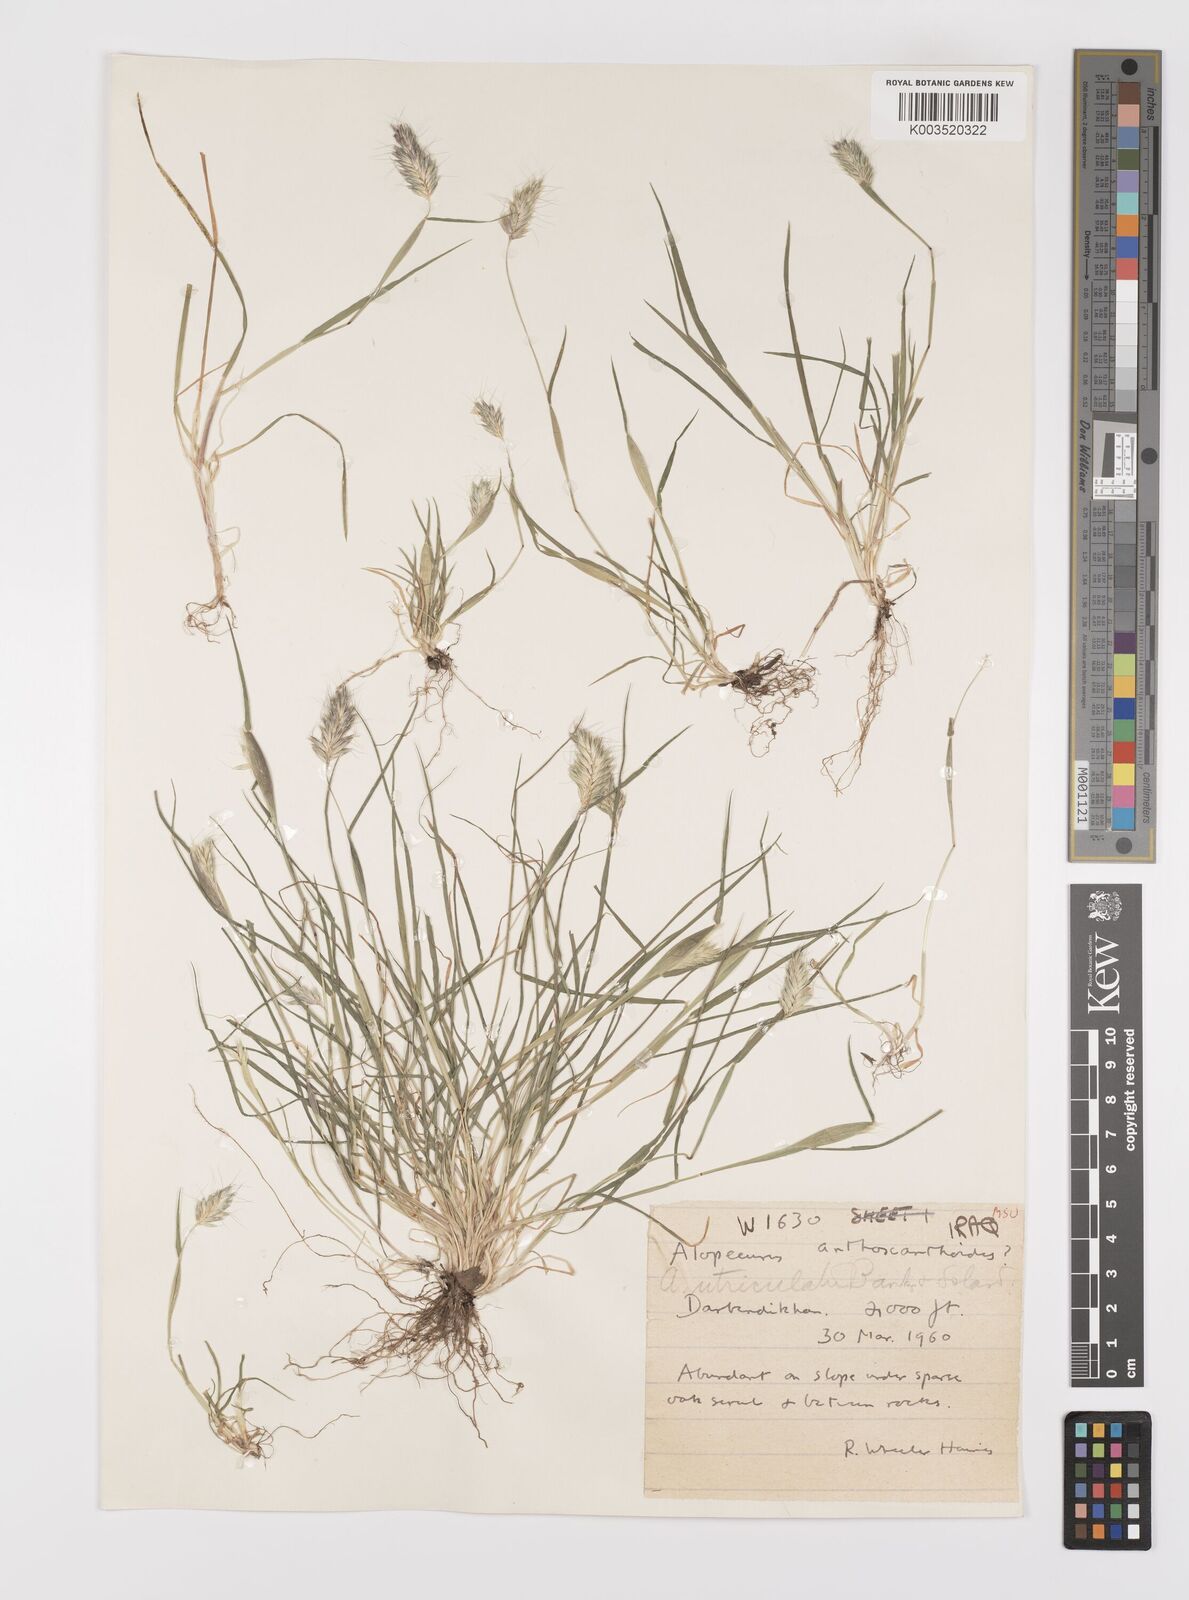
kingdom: Plantae
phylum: Tracheophyta
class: Liliopsida
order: Poales
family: Poaceae
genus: Alopecurus
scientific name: Alopecurus utriculatus
